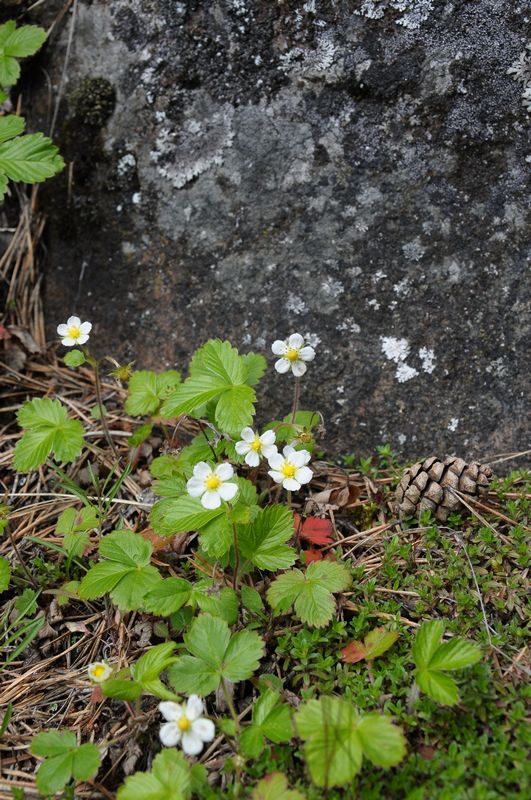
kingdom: Plantae
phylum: Tracheophyta
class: Magnoliopsida
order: Rosales
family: Rosaceae
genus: Fragaria
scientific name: Fragaria vesca
